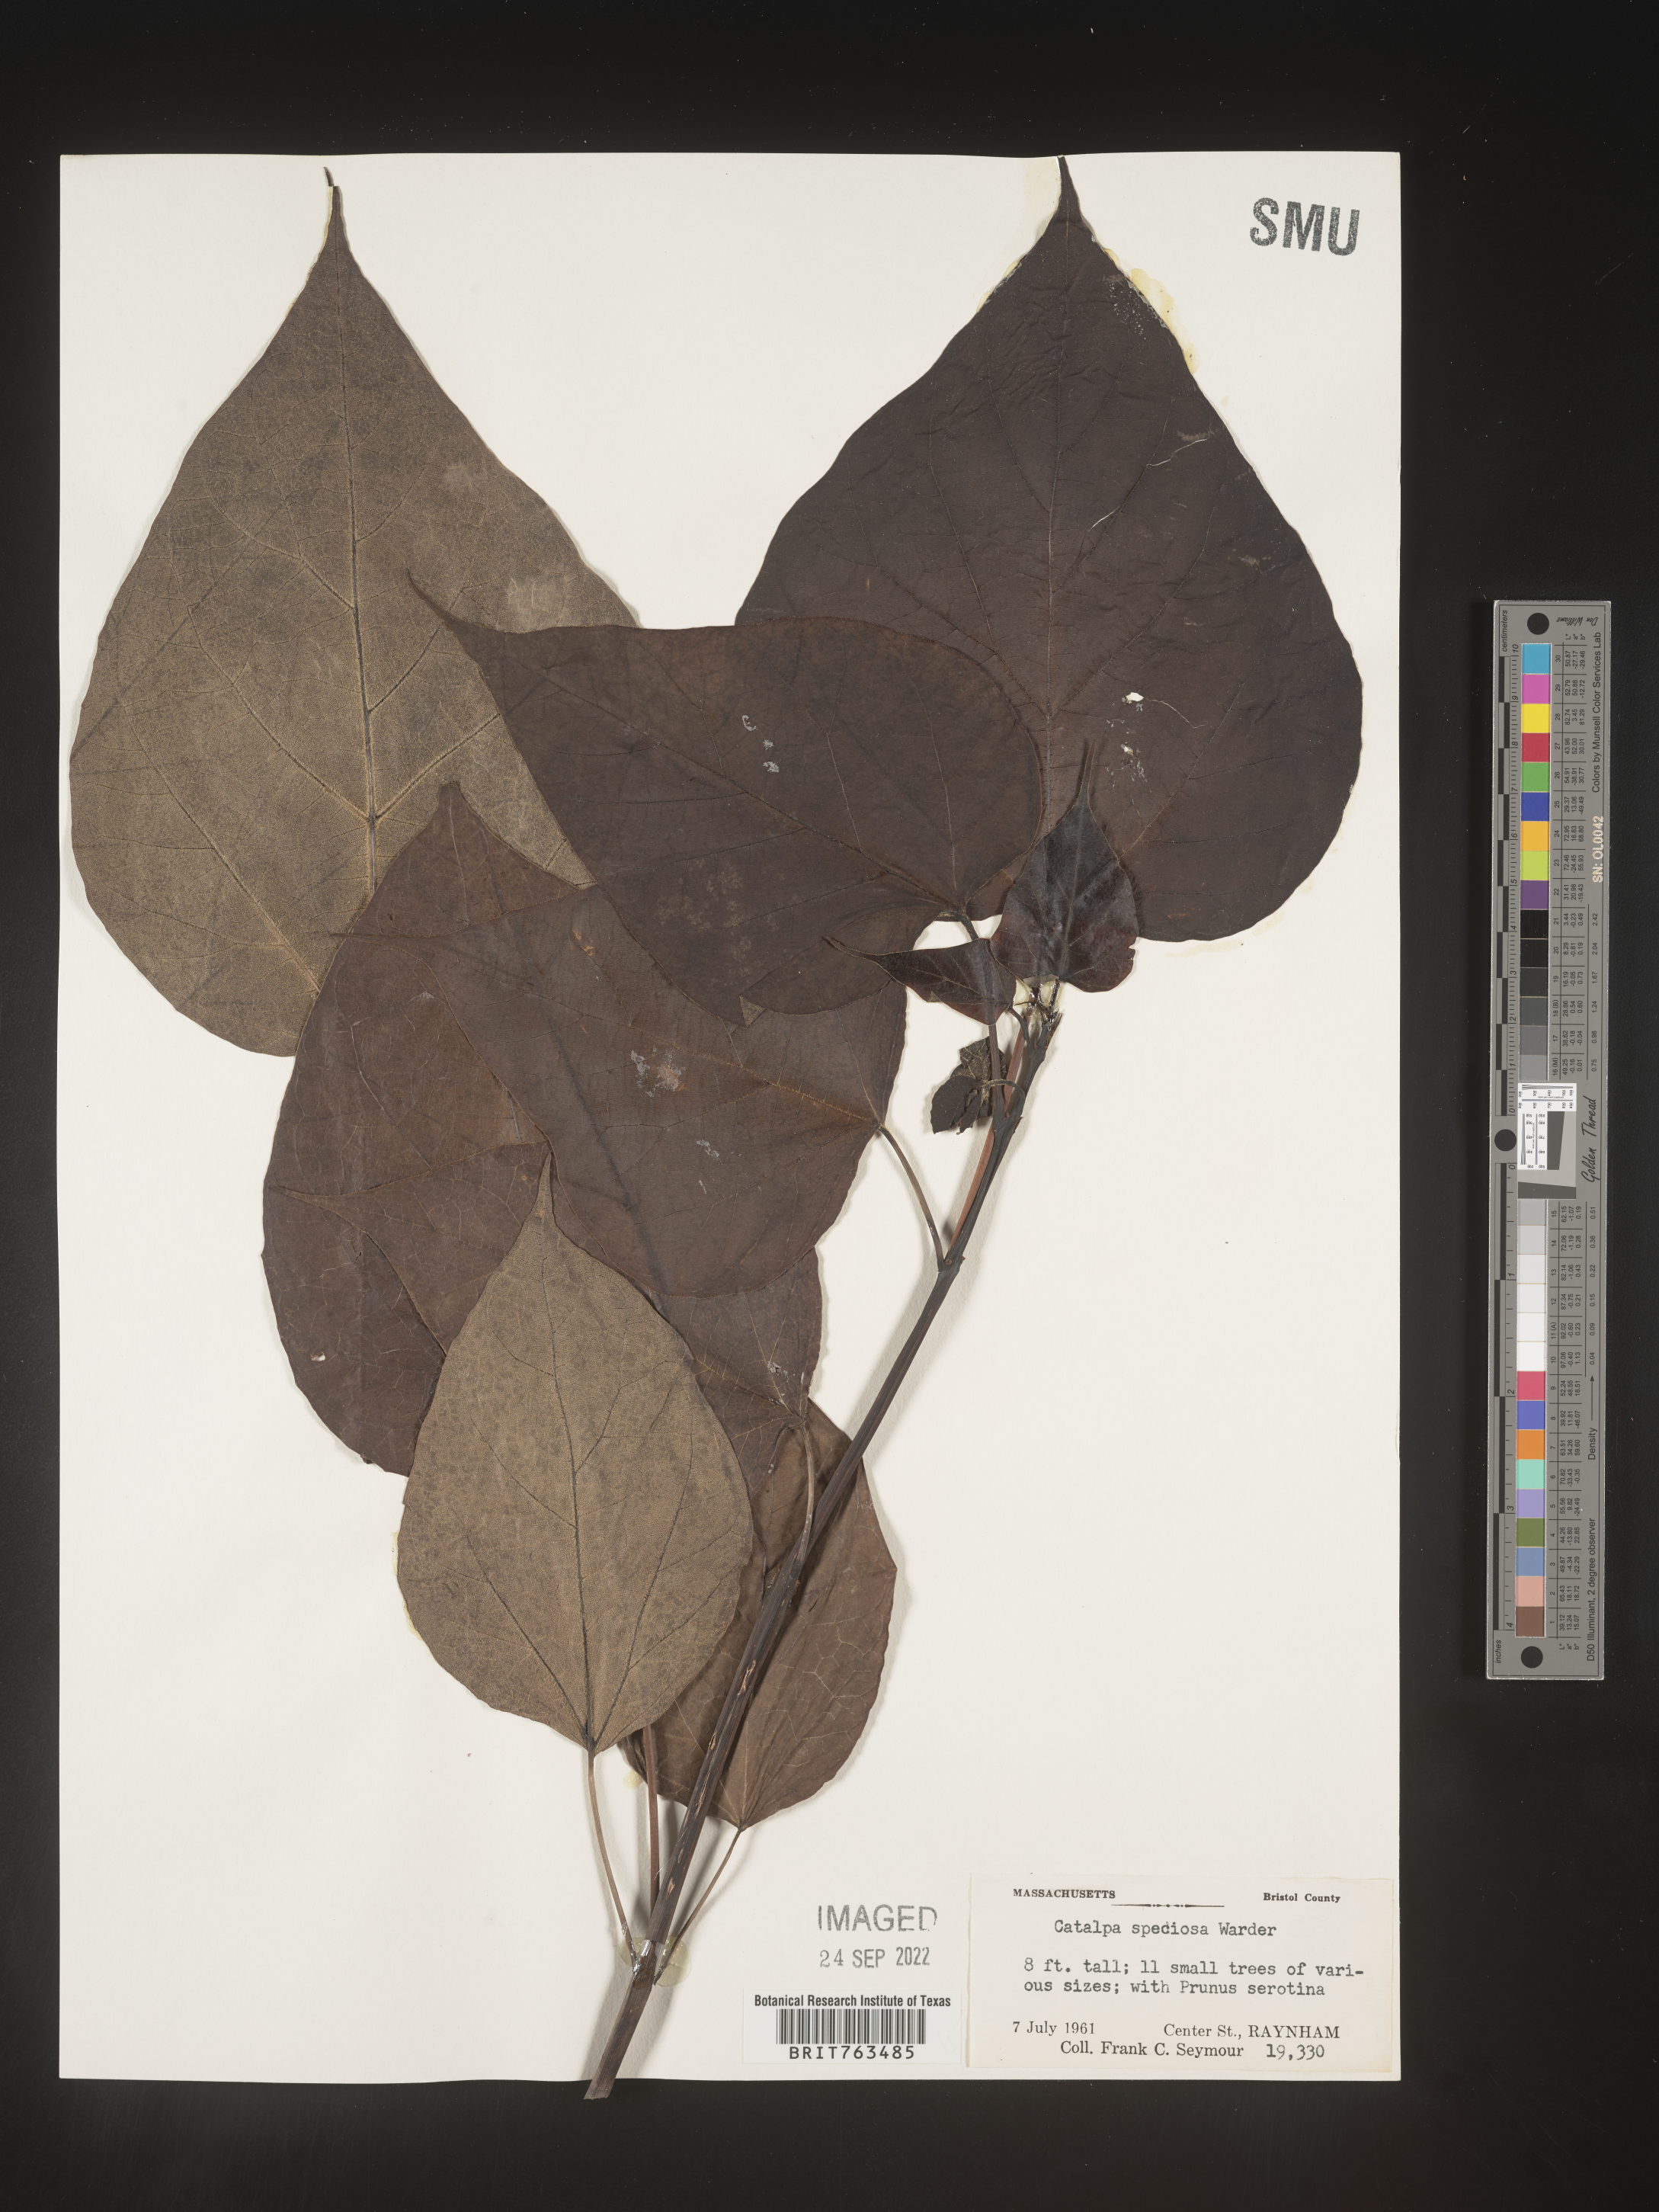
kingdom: Plantae
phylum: Tracheophyta
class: Magnoliopsida
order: Lamiales
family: Bignoniaceae
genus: Catalpa
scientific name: Catalpa speciosa
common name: Northern catalpa
